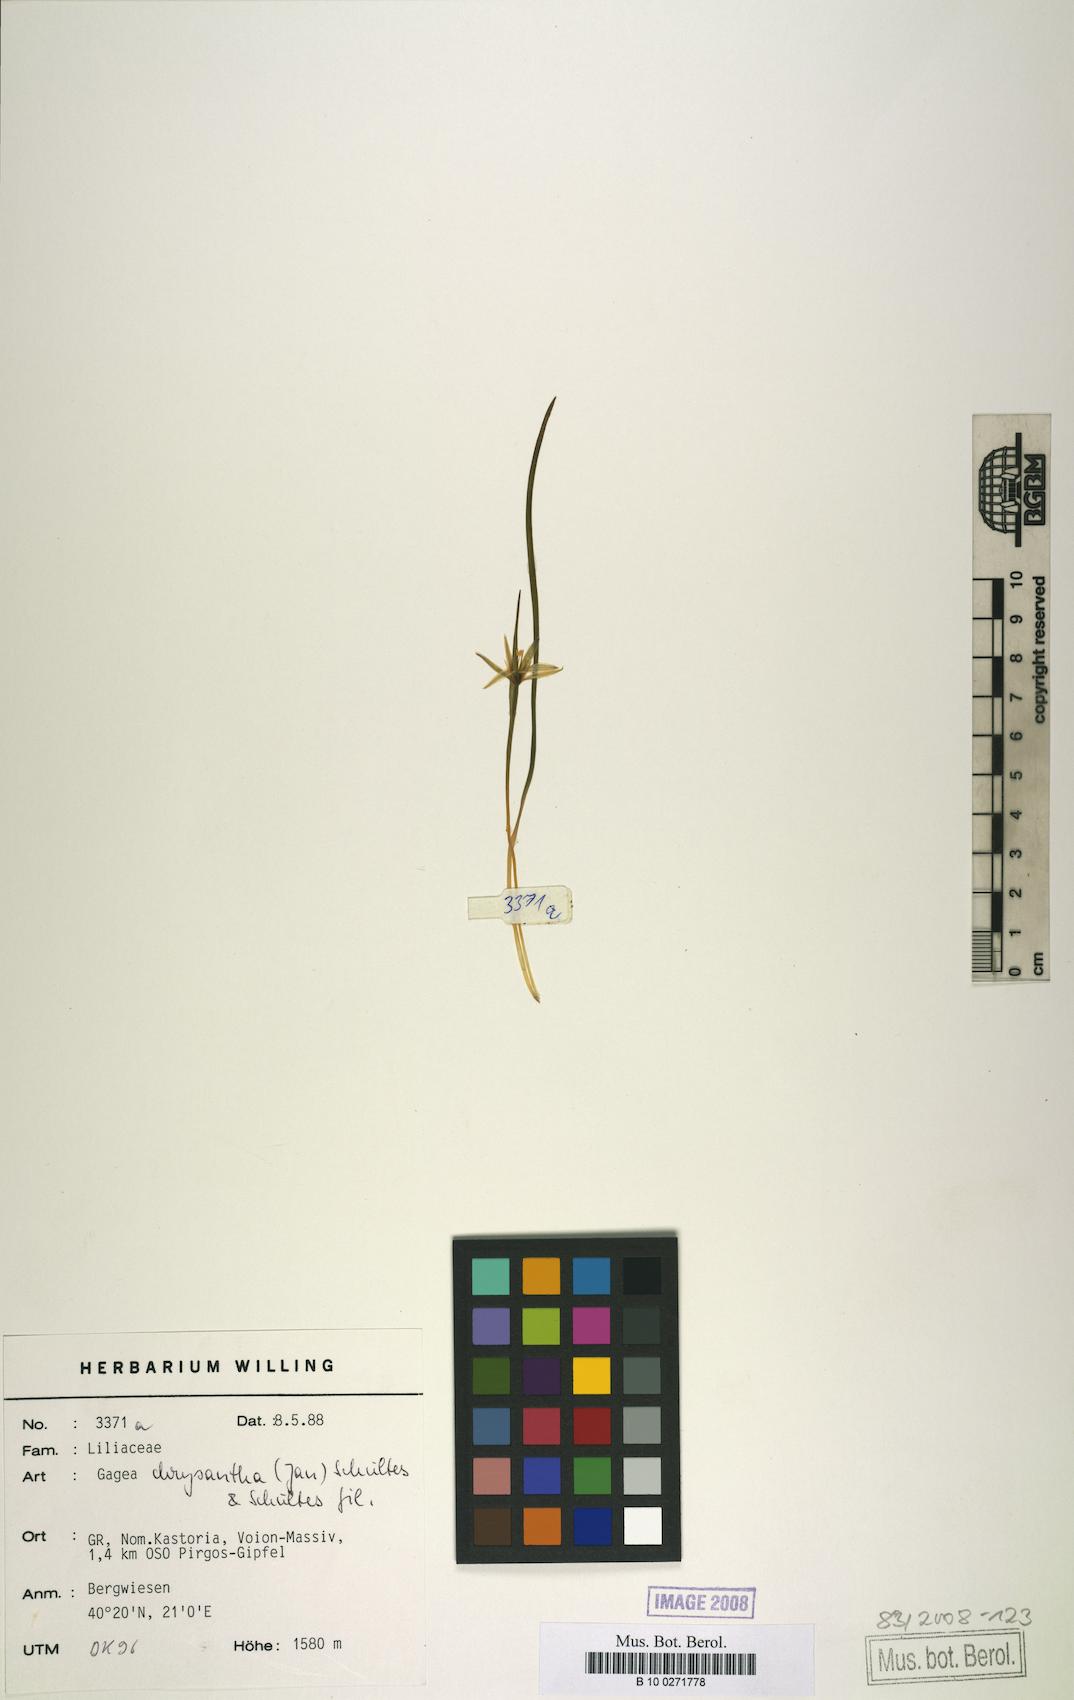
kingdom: Plantae
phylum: Tracheophyta
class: Liliopsida
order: Liliales
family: Liliaceae
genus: Gagea
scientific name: Gagea chrysantha
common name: Golden gagea
